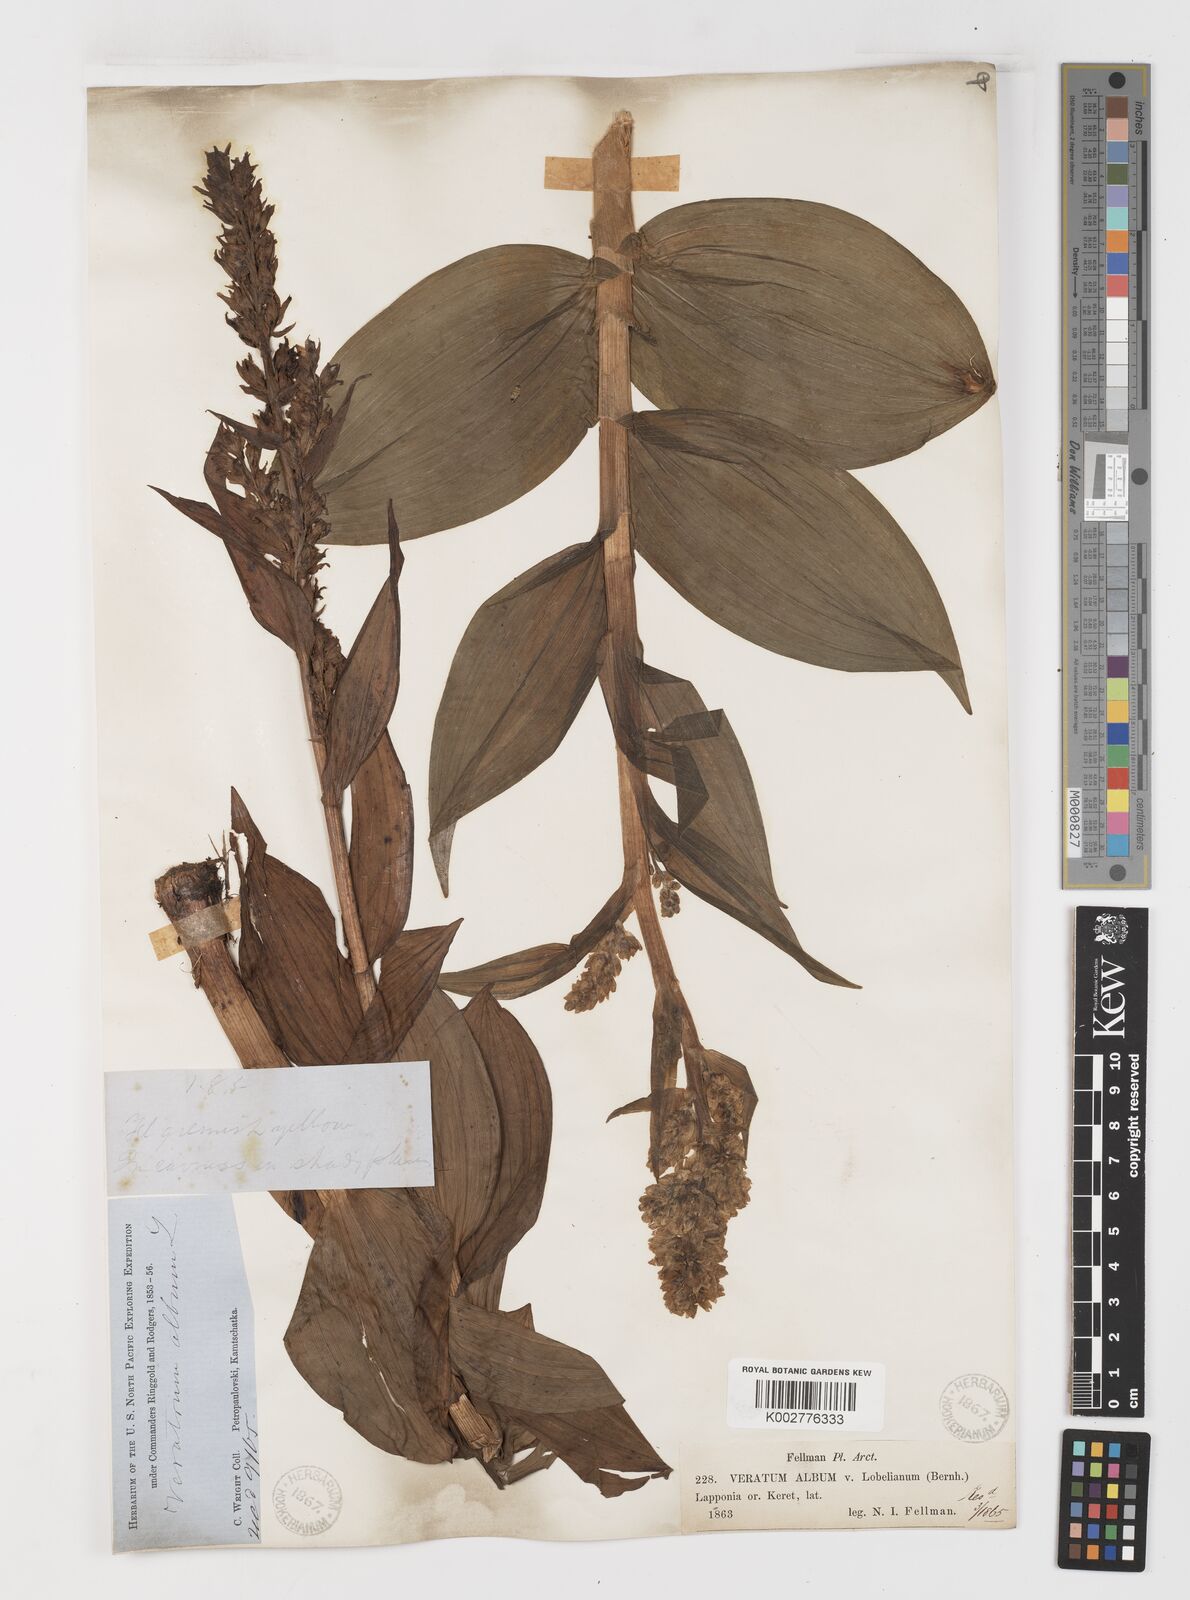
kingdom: Plantae
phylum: Tracheophyta
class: Liliopsida
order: Liliales
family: Melanthiaceae
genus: Veratrum
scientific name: Veratrum album
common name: White veratrum
